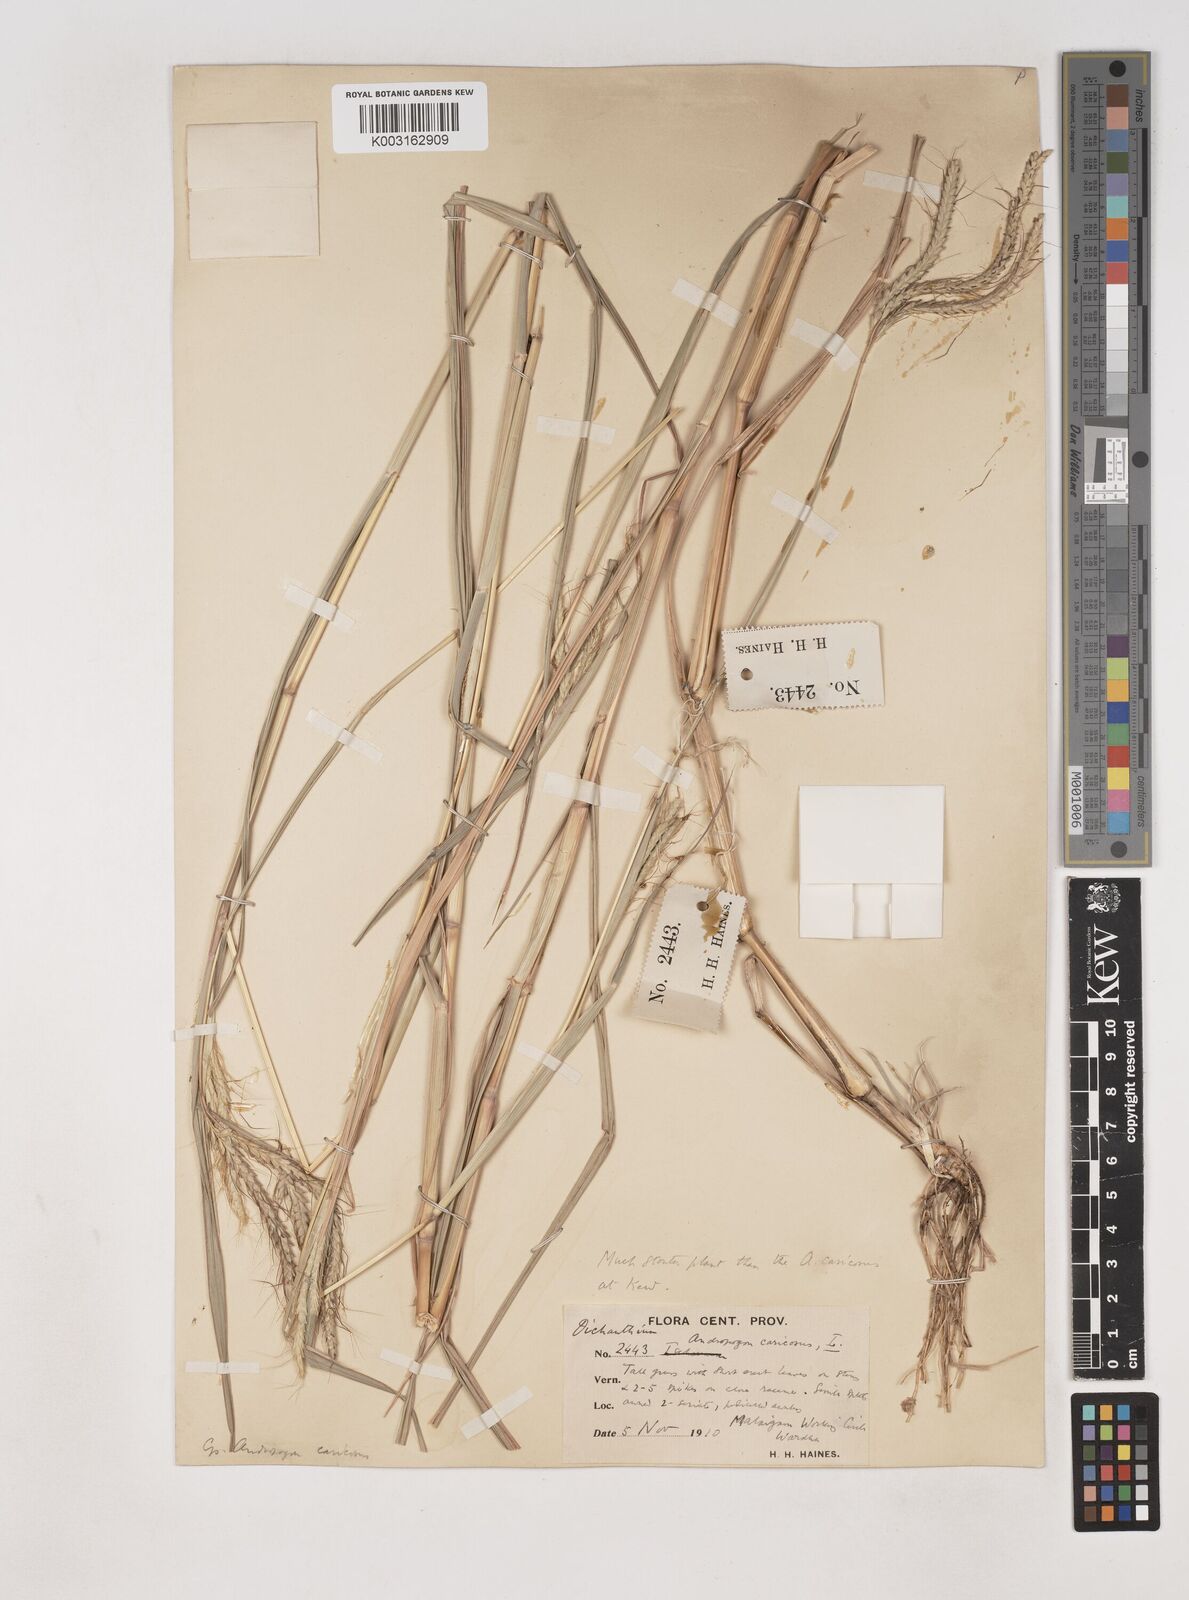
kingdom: Plantae
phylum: Tracheophyta
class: Liliopsida
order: Poales
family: Poaceae
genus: Dichanthium
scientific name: Dichanthium aristatum
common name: Angleton bluestem
